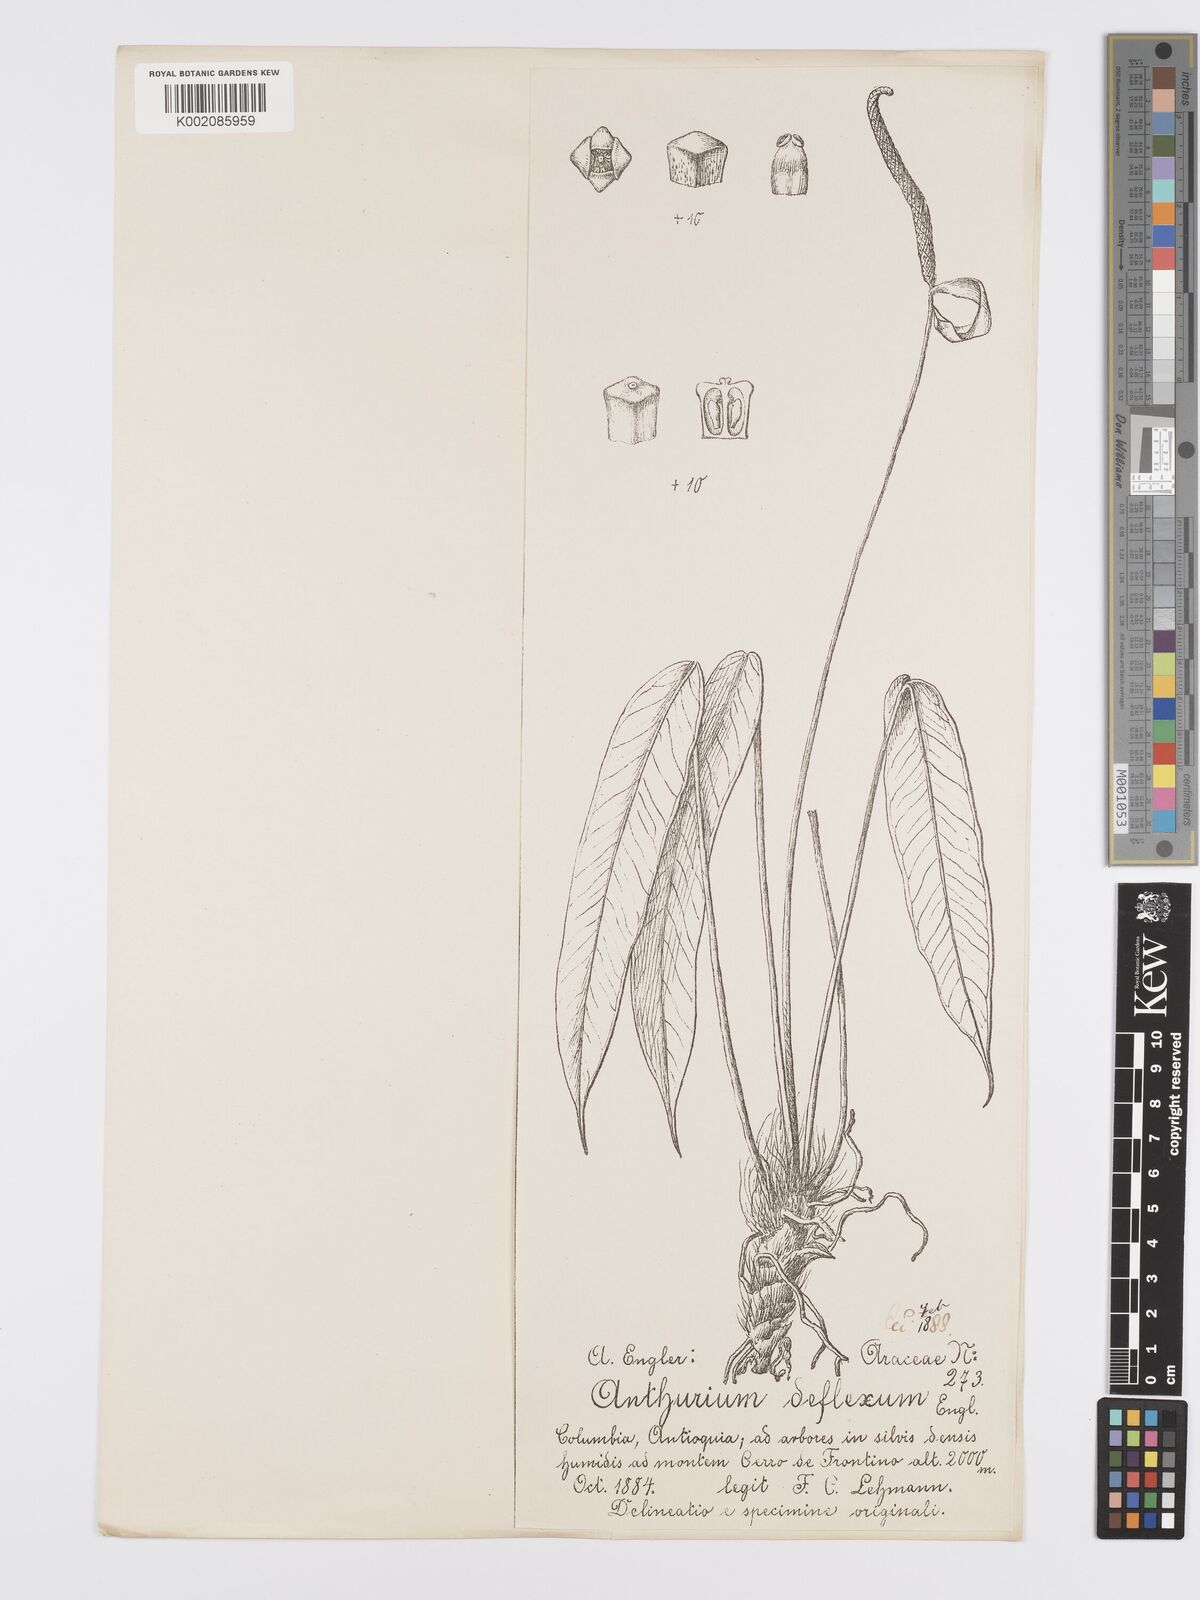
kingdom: Plantae
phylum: Tracheophyta
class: Liliopsida
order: Alismatales
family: Araceae
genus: Anthurium
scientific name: Anthurium deflexum
